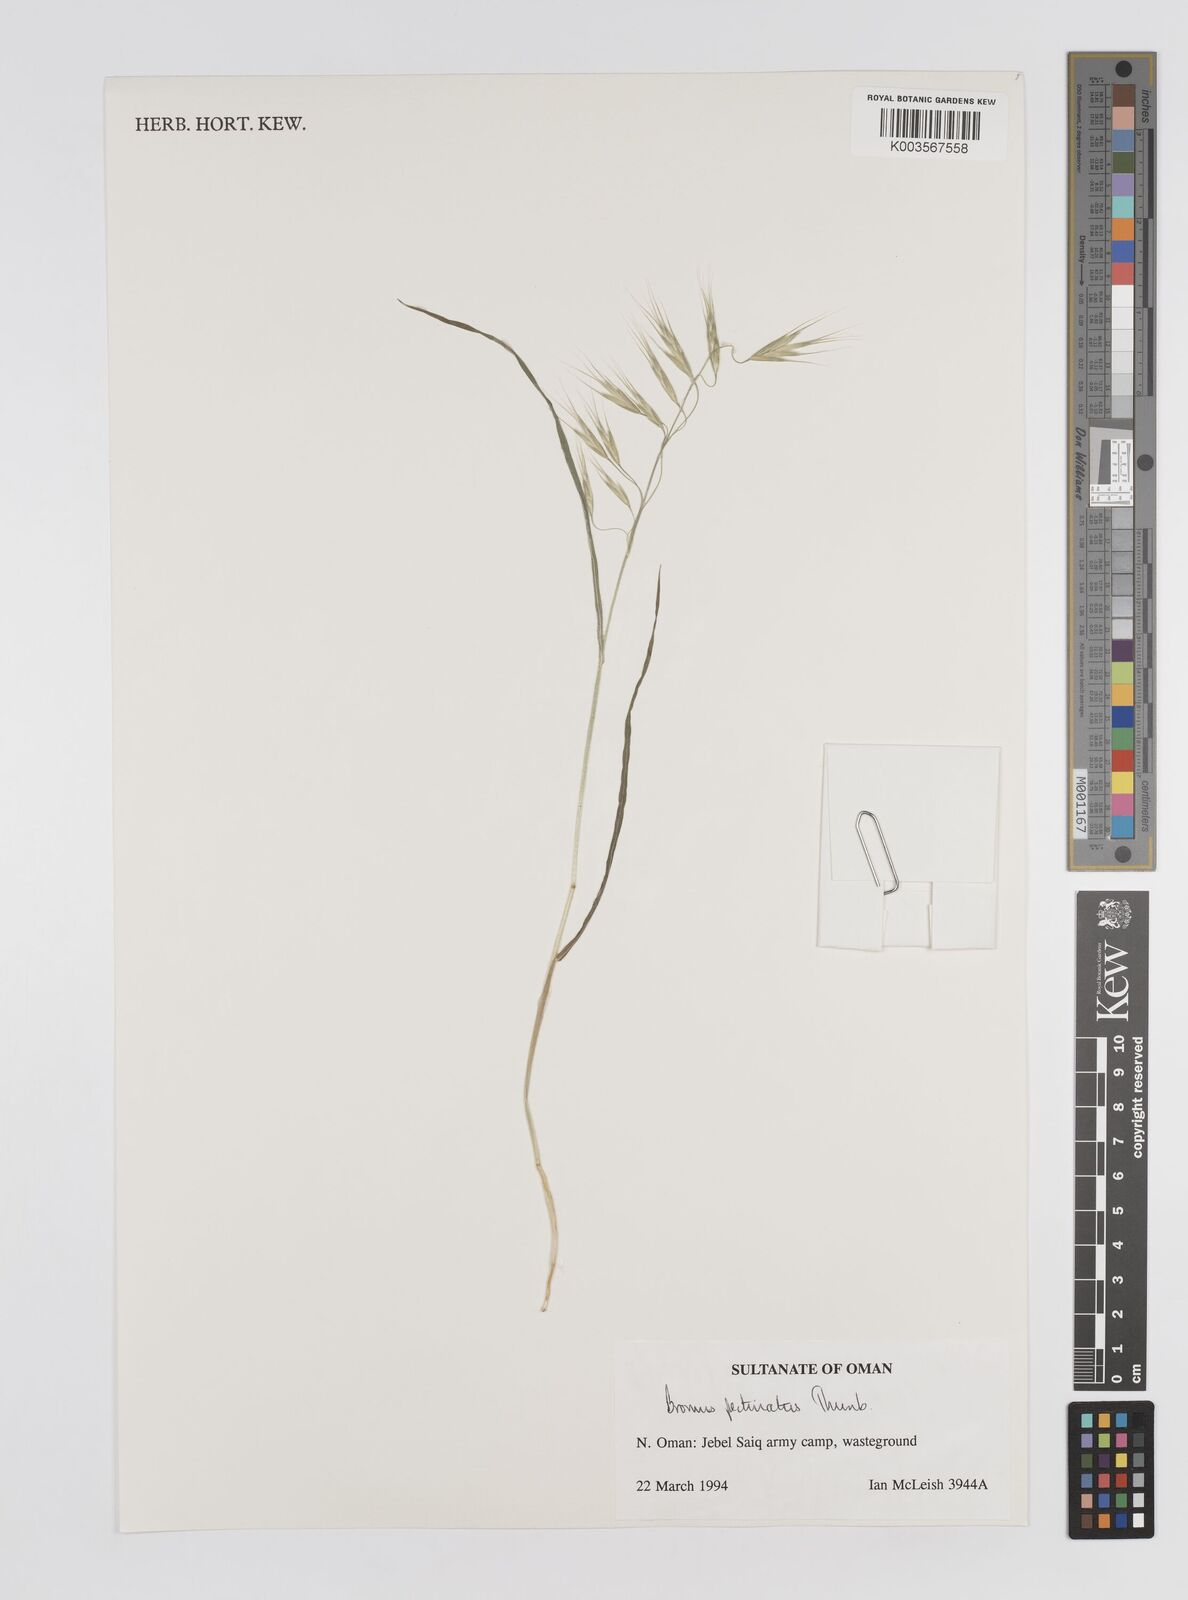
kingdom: Plantae
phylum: Tracheophyta
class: Liliopsida
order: Poales
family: Poaceae
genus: Bromus
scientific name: Bromus pectinatus
